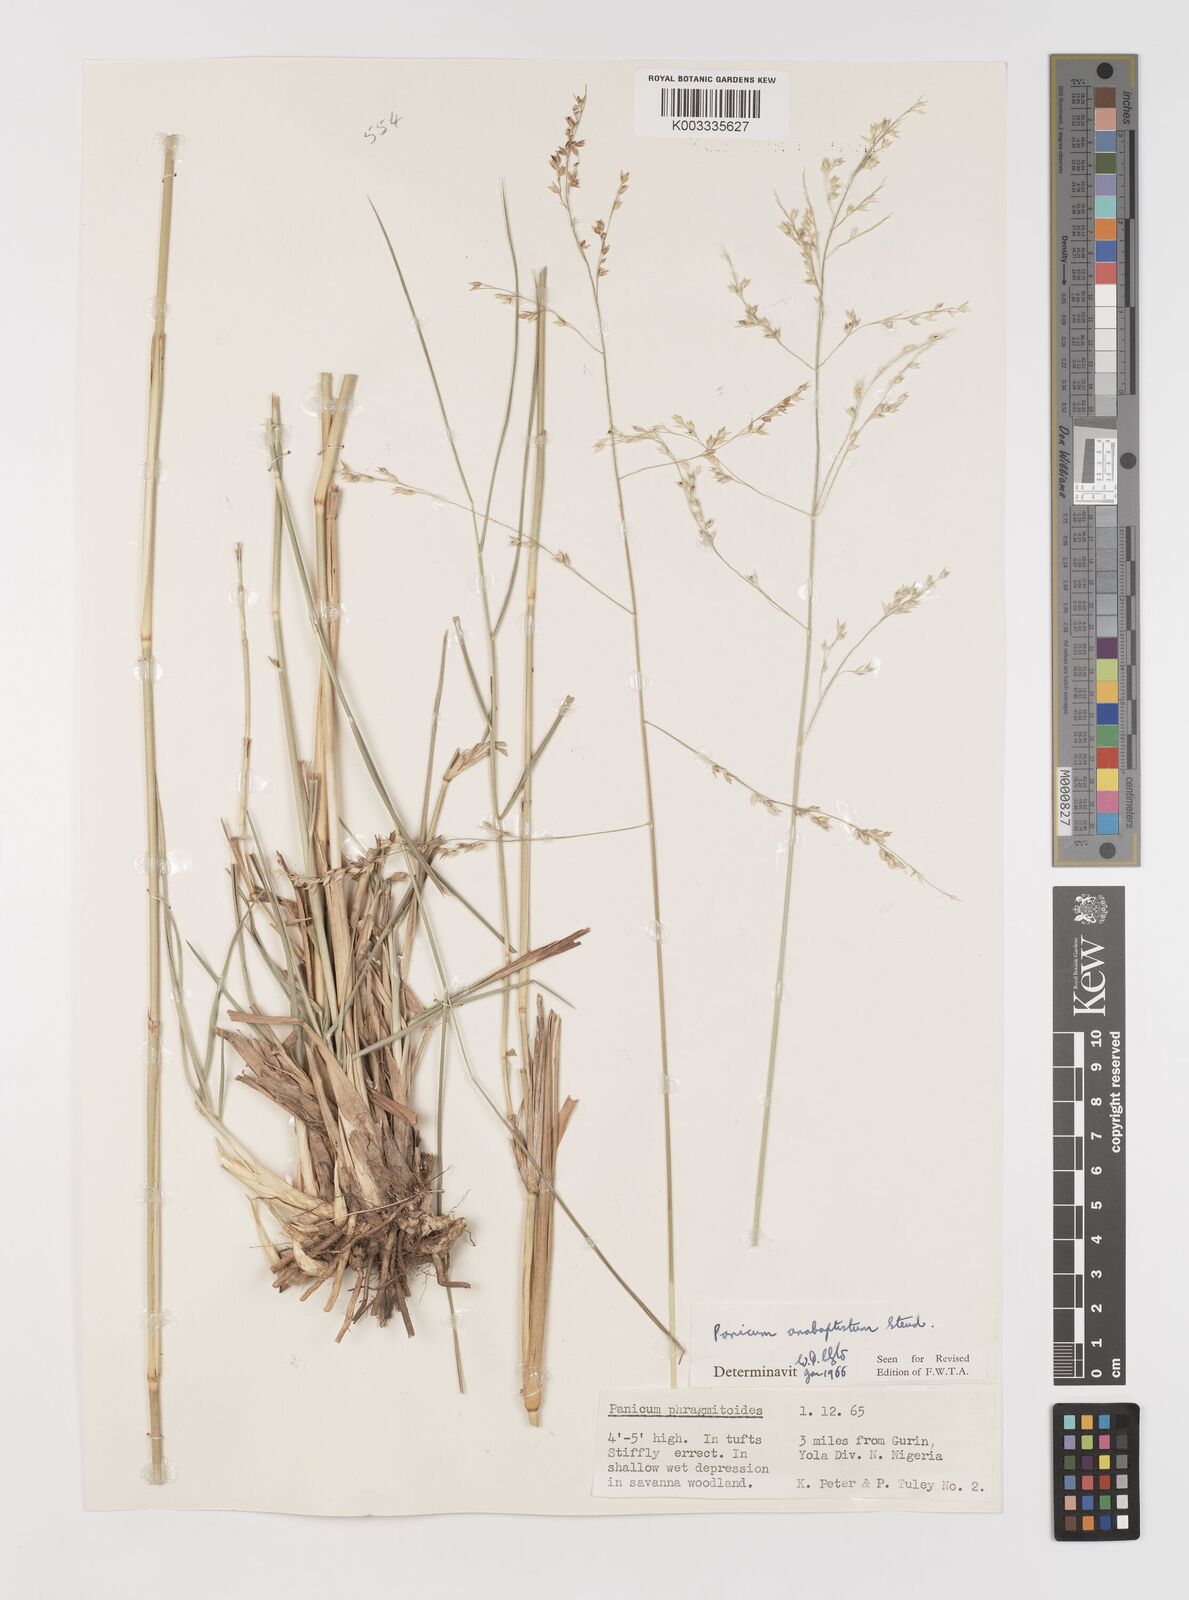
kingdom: Plantae
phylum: Tracheophyta
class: Liliopsida
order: Poales
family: Poaceae
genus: Panicum
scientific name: Panicum anabaptistum
